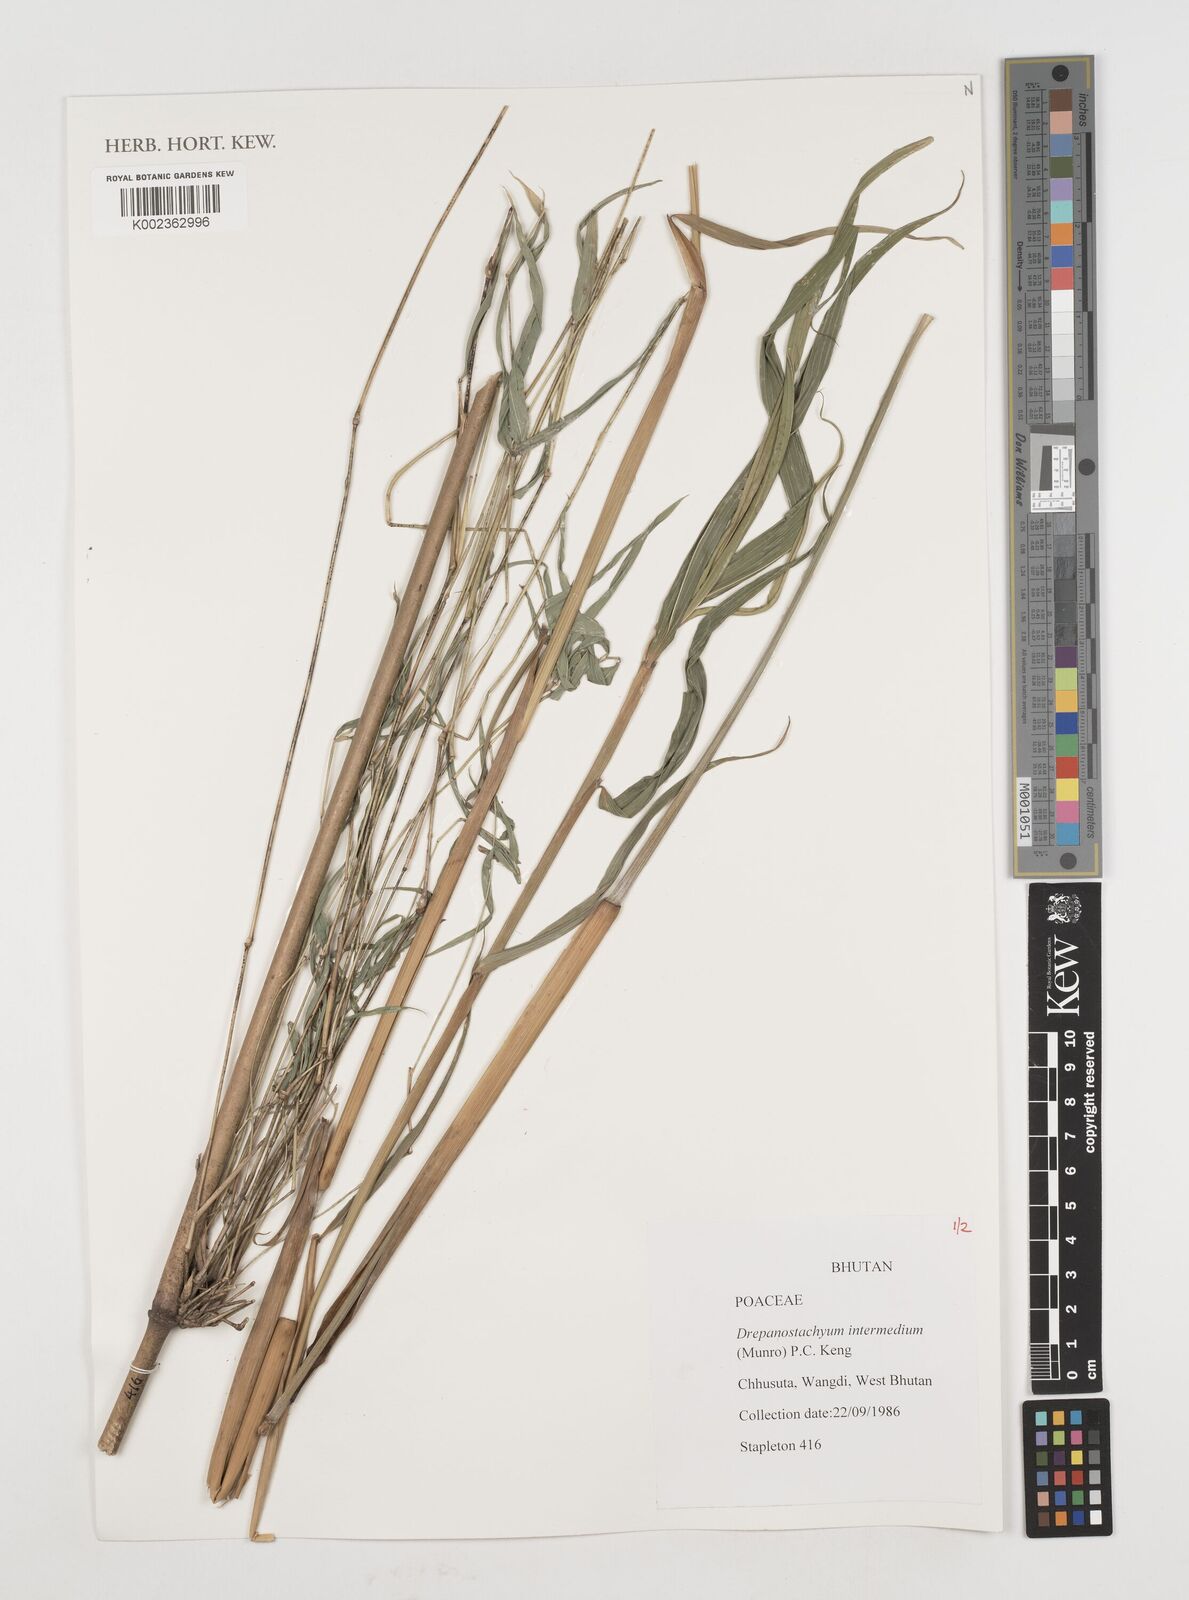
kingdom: Plantae
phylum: Tracheophyta
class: Liliopsida
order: Poales
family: Poaceae
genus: Drepanostachyum
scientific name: Drepanostachyum intermedium
